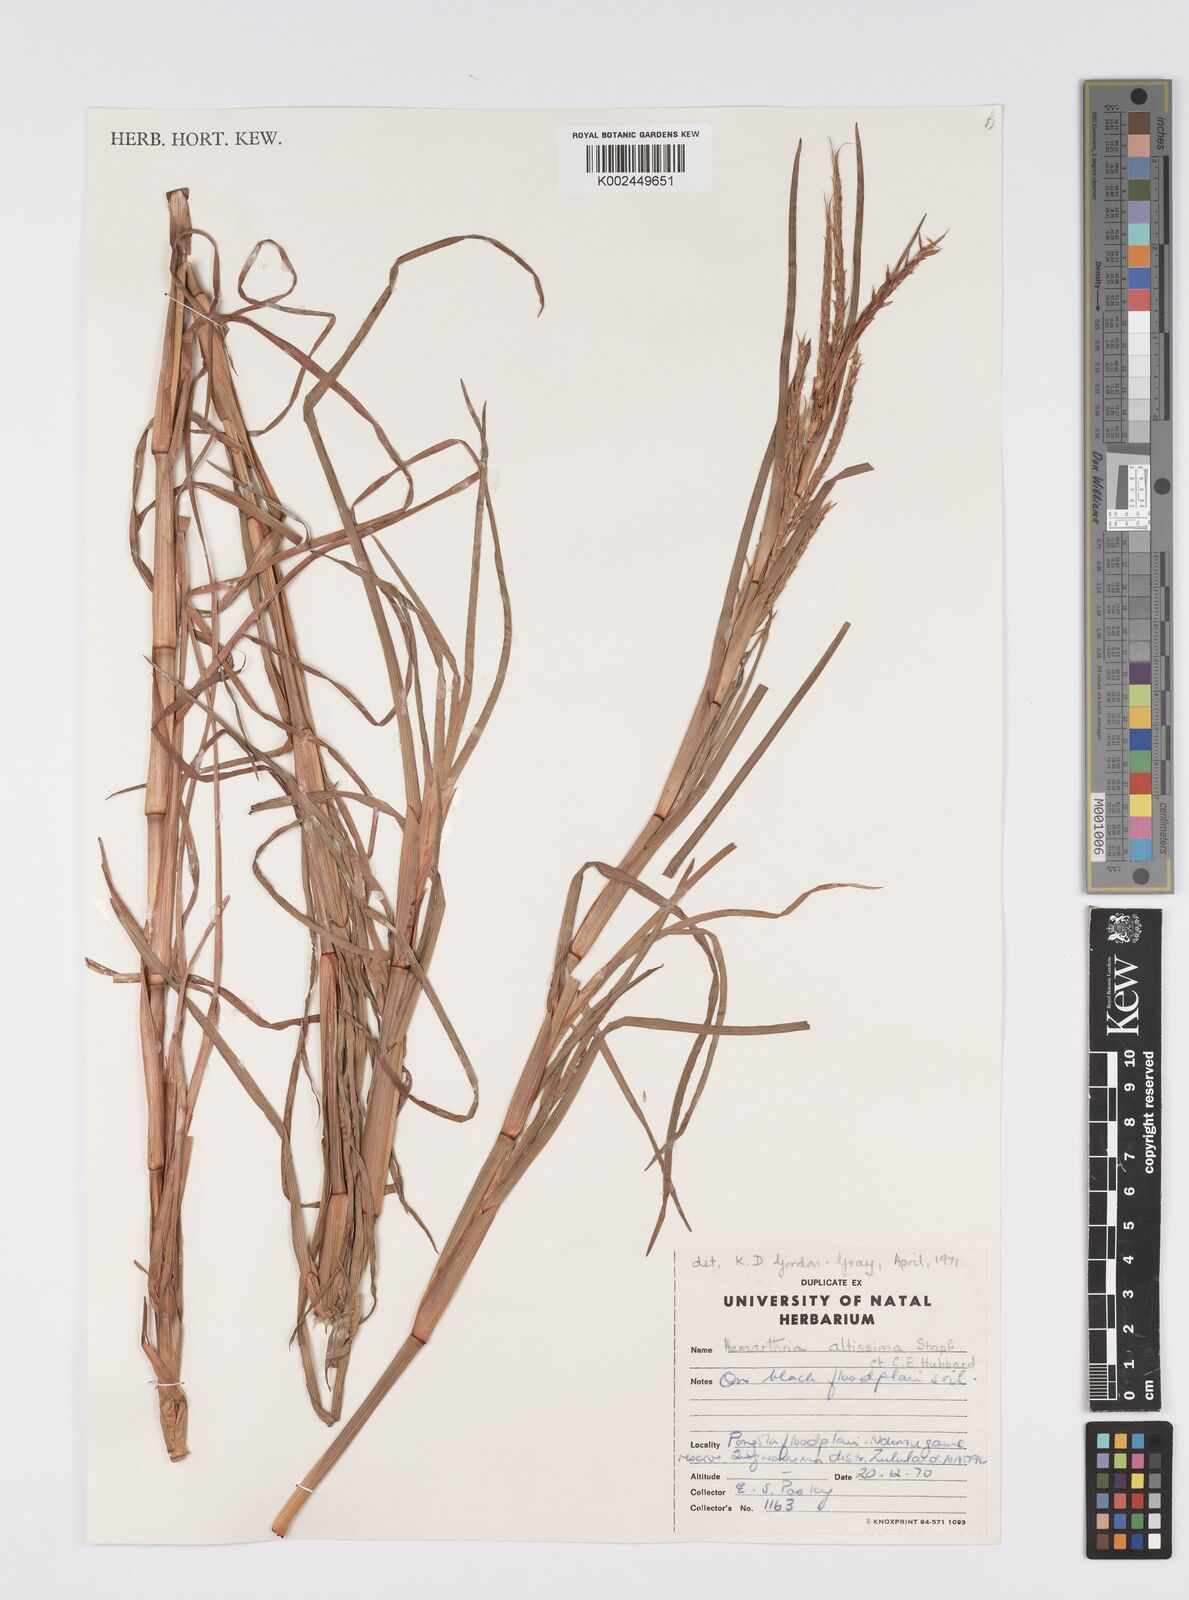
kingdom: Plantae
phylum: Tracheophyta
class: Liliopsida
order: Poales
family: Poaceae
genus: Hemarthria
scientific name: Hemarthria altissima
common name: African jointgrass
